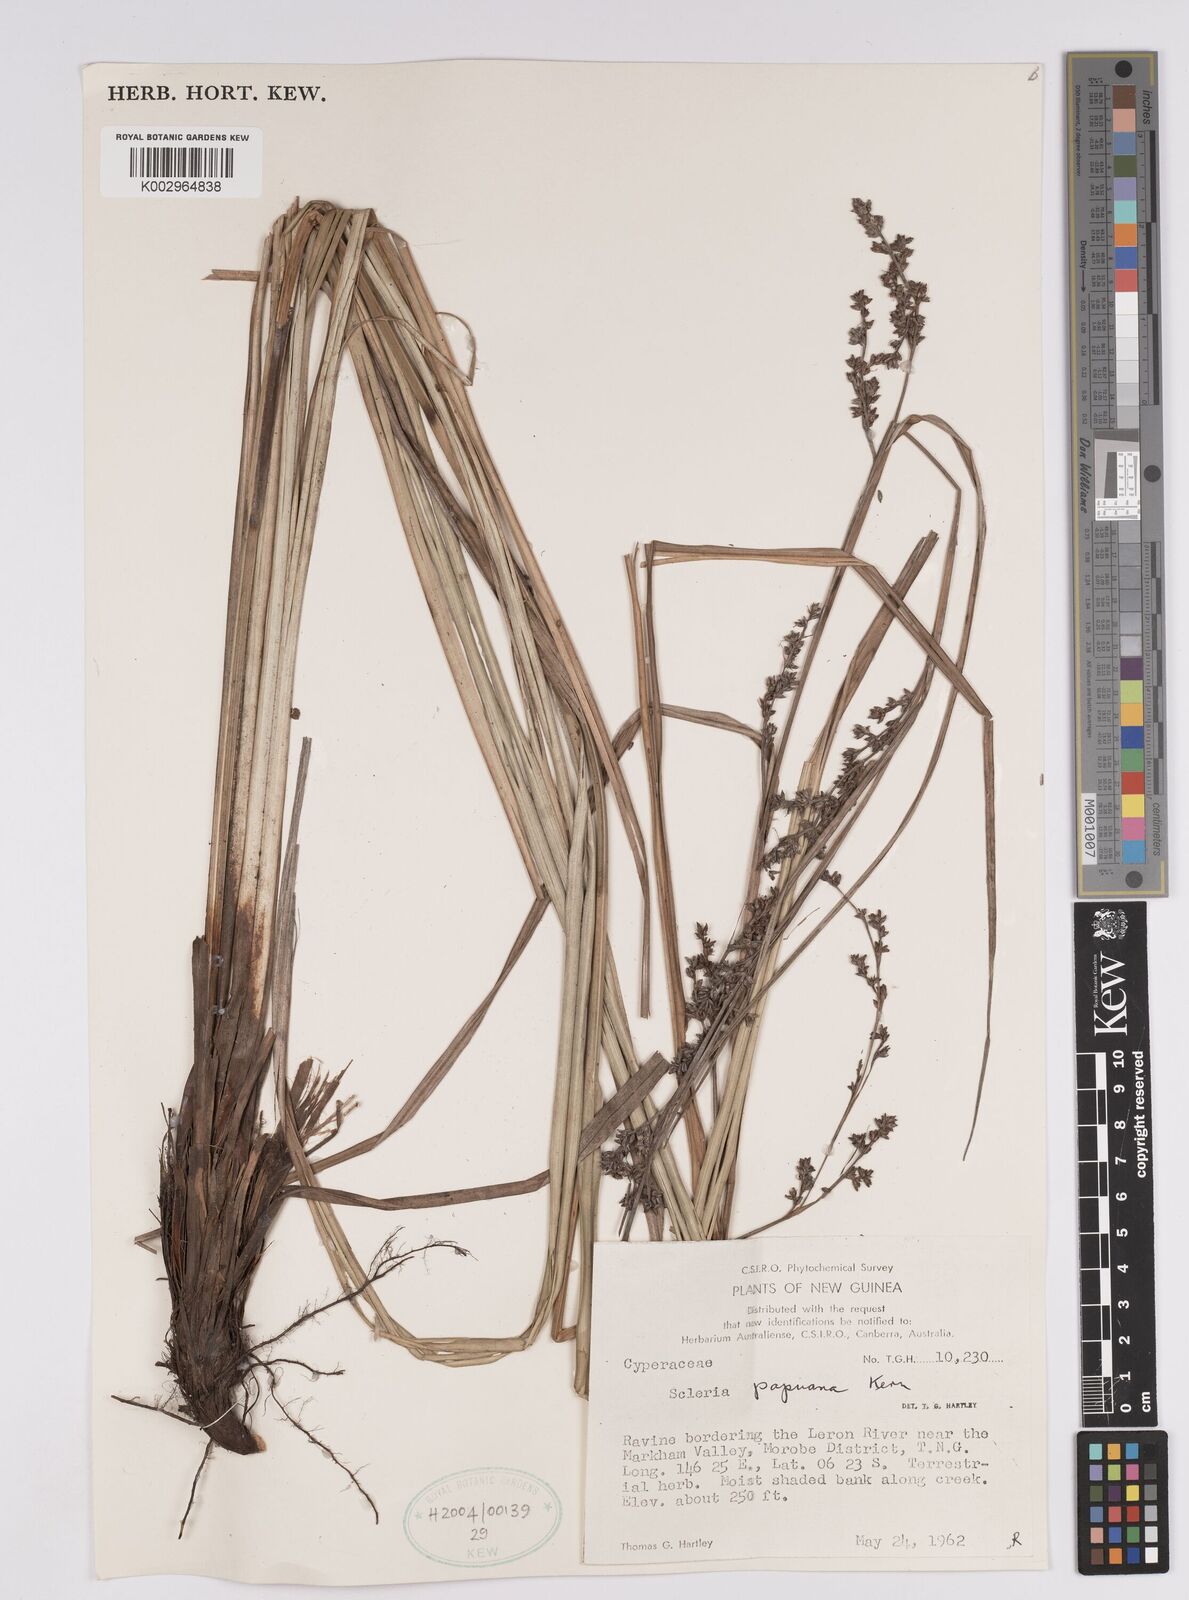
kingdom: Plantae
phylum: Tracheophyta
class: Liliopsida
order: Poales
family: Cyperaceae
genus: Scleria
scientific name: Scleria papuana
